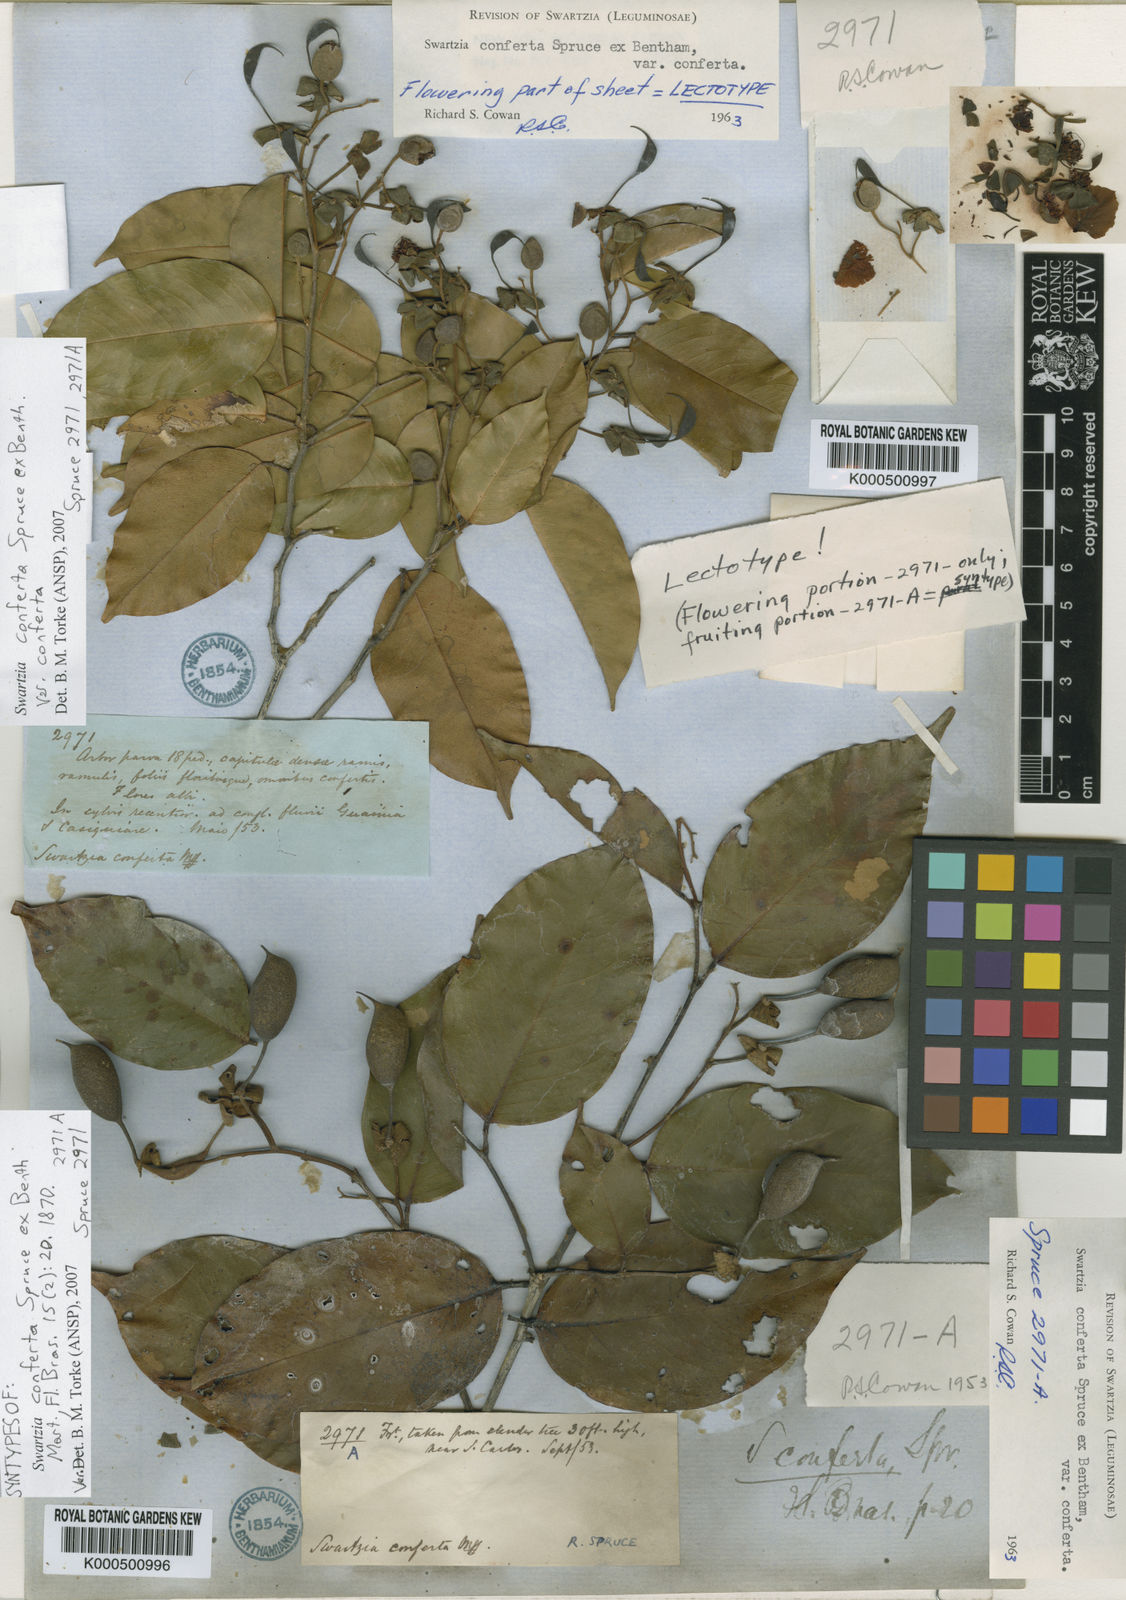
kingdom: Plantae
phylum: Tracheophyta
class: Magnoliopsida
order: Fabales
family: Fabaceae
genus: Swartzia
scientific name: Swartzia conferta
